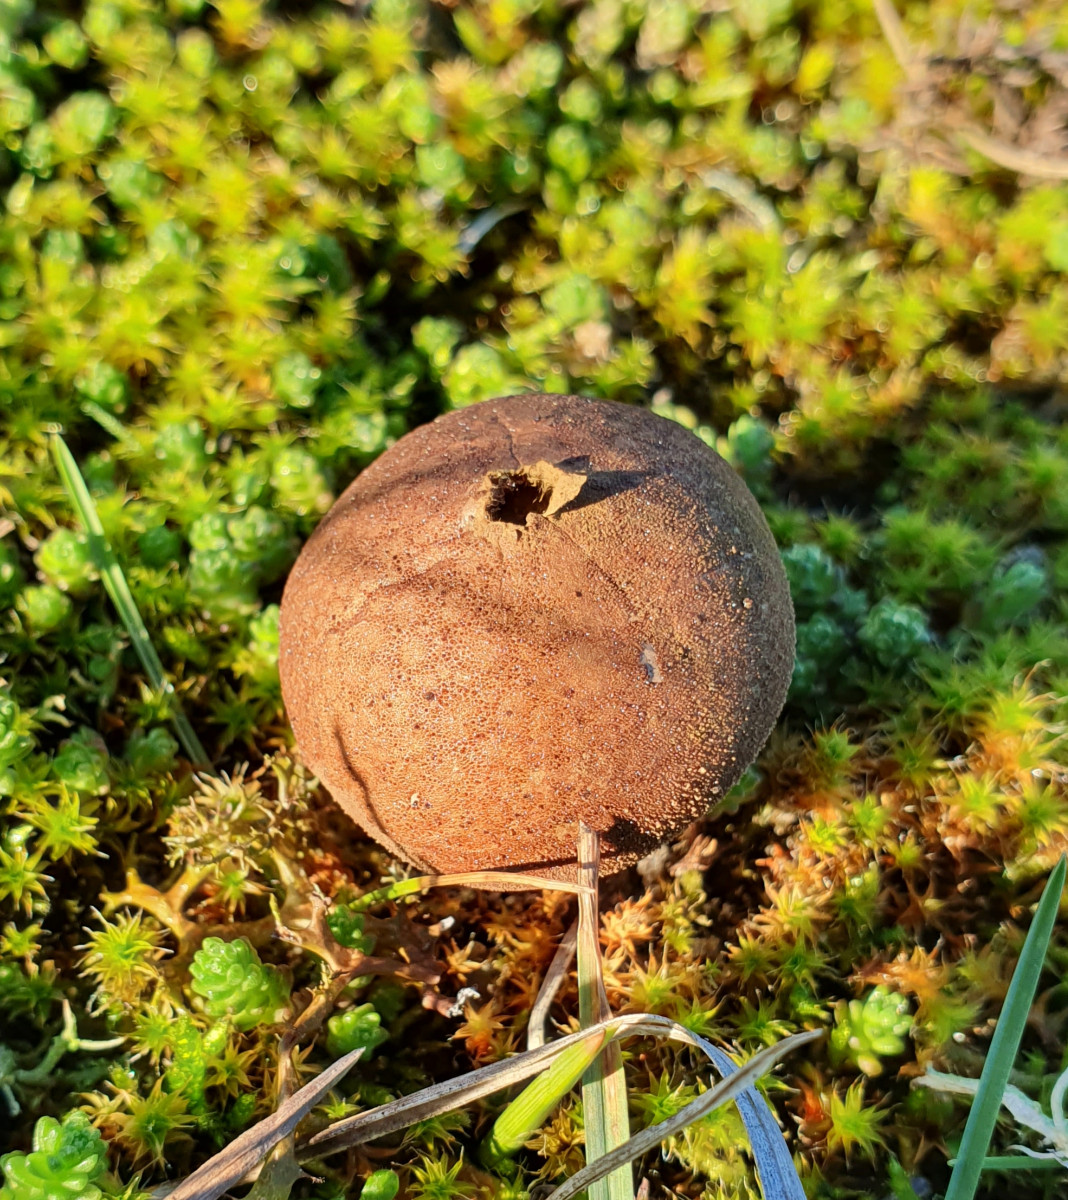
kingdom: Fungi
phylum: Basidiomycota
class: Agaricomycetes
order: Agaricales
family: Lycoperdaceae
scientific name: Lycoperdaceae
